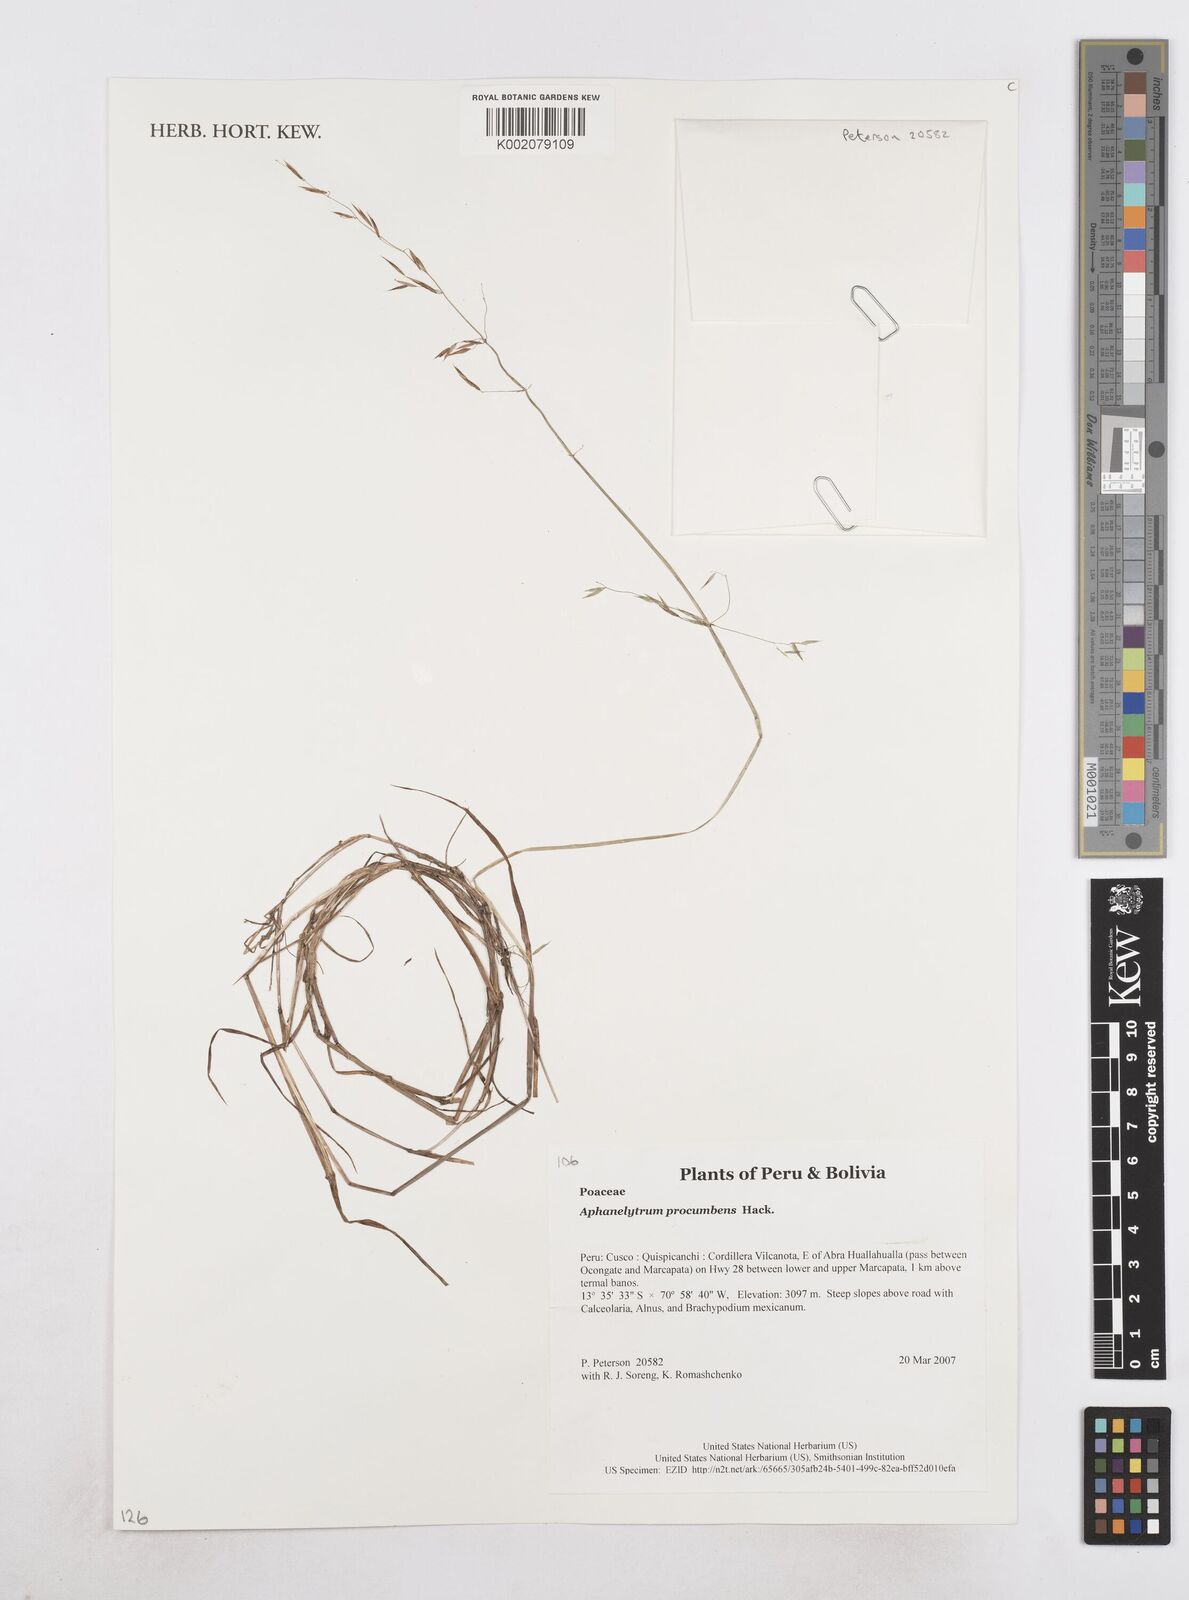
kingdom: Plantae
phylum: Tracheophyta
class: Liliopsida
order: Poales
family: Poaceae
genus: Poa
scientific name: Poa hitchcockiana
